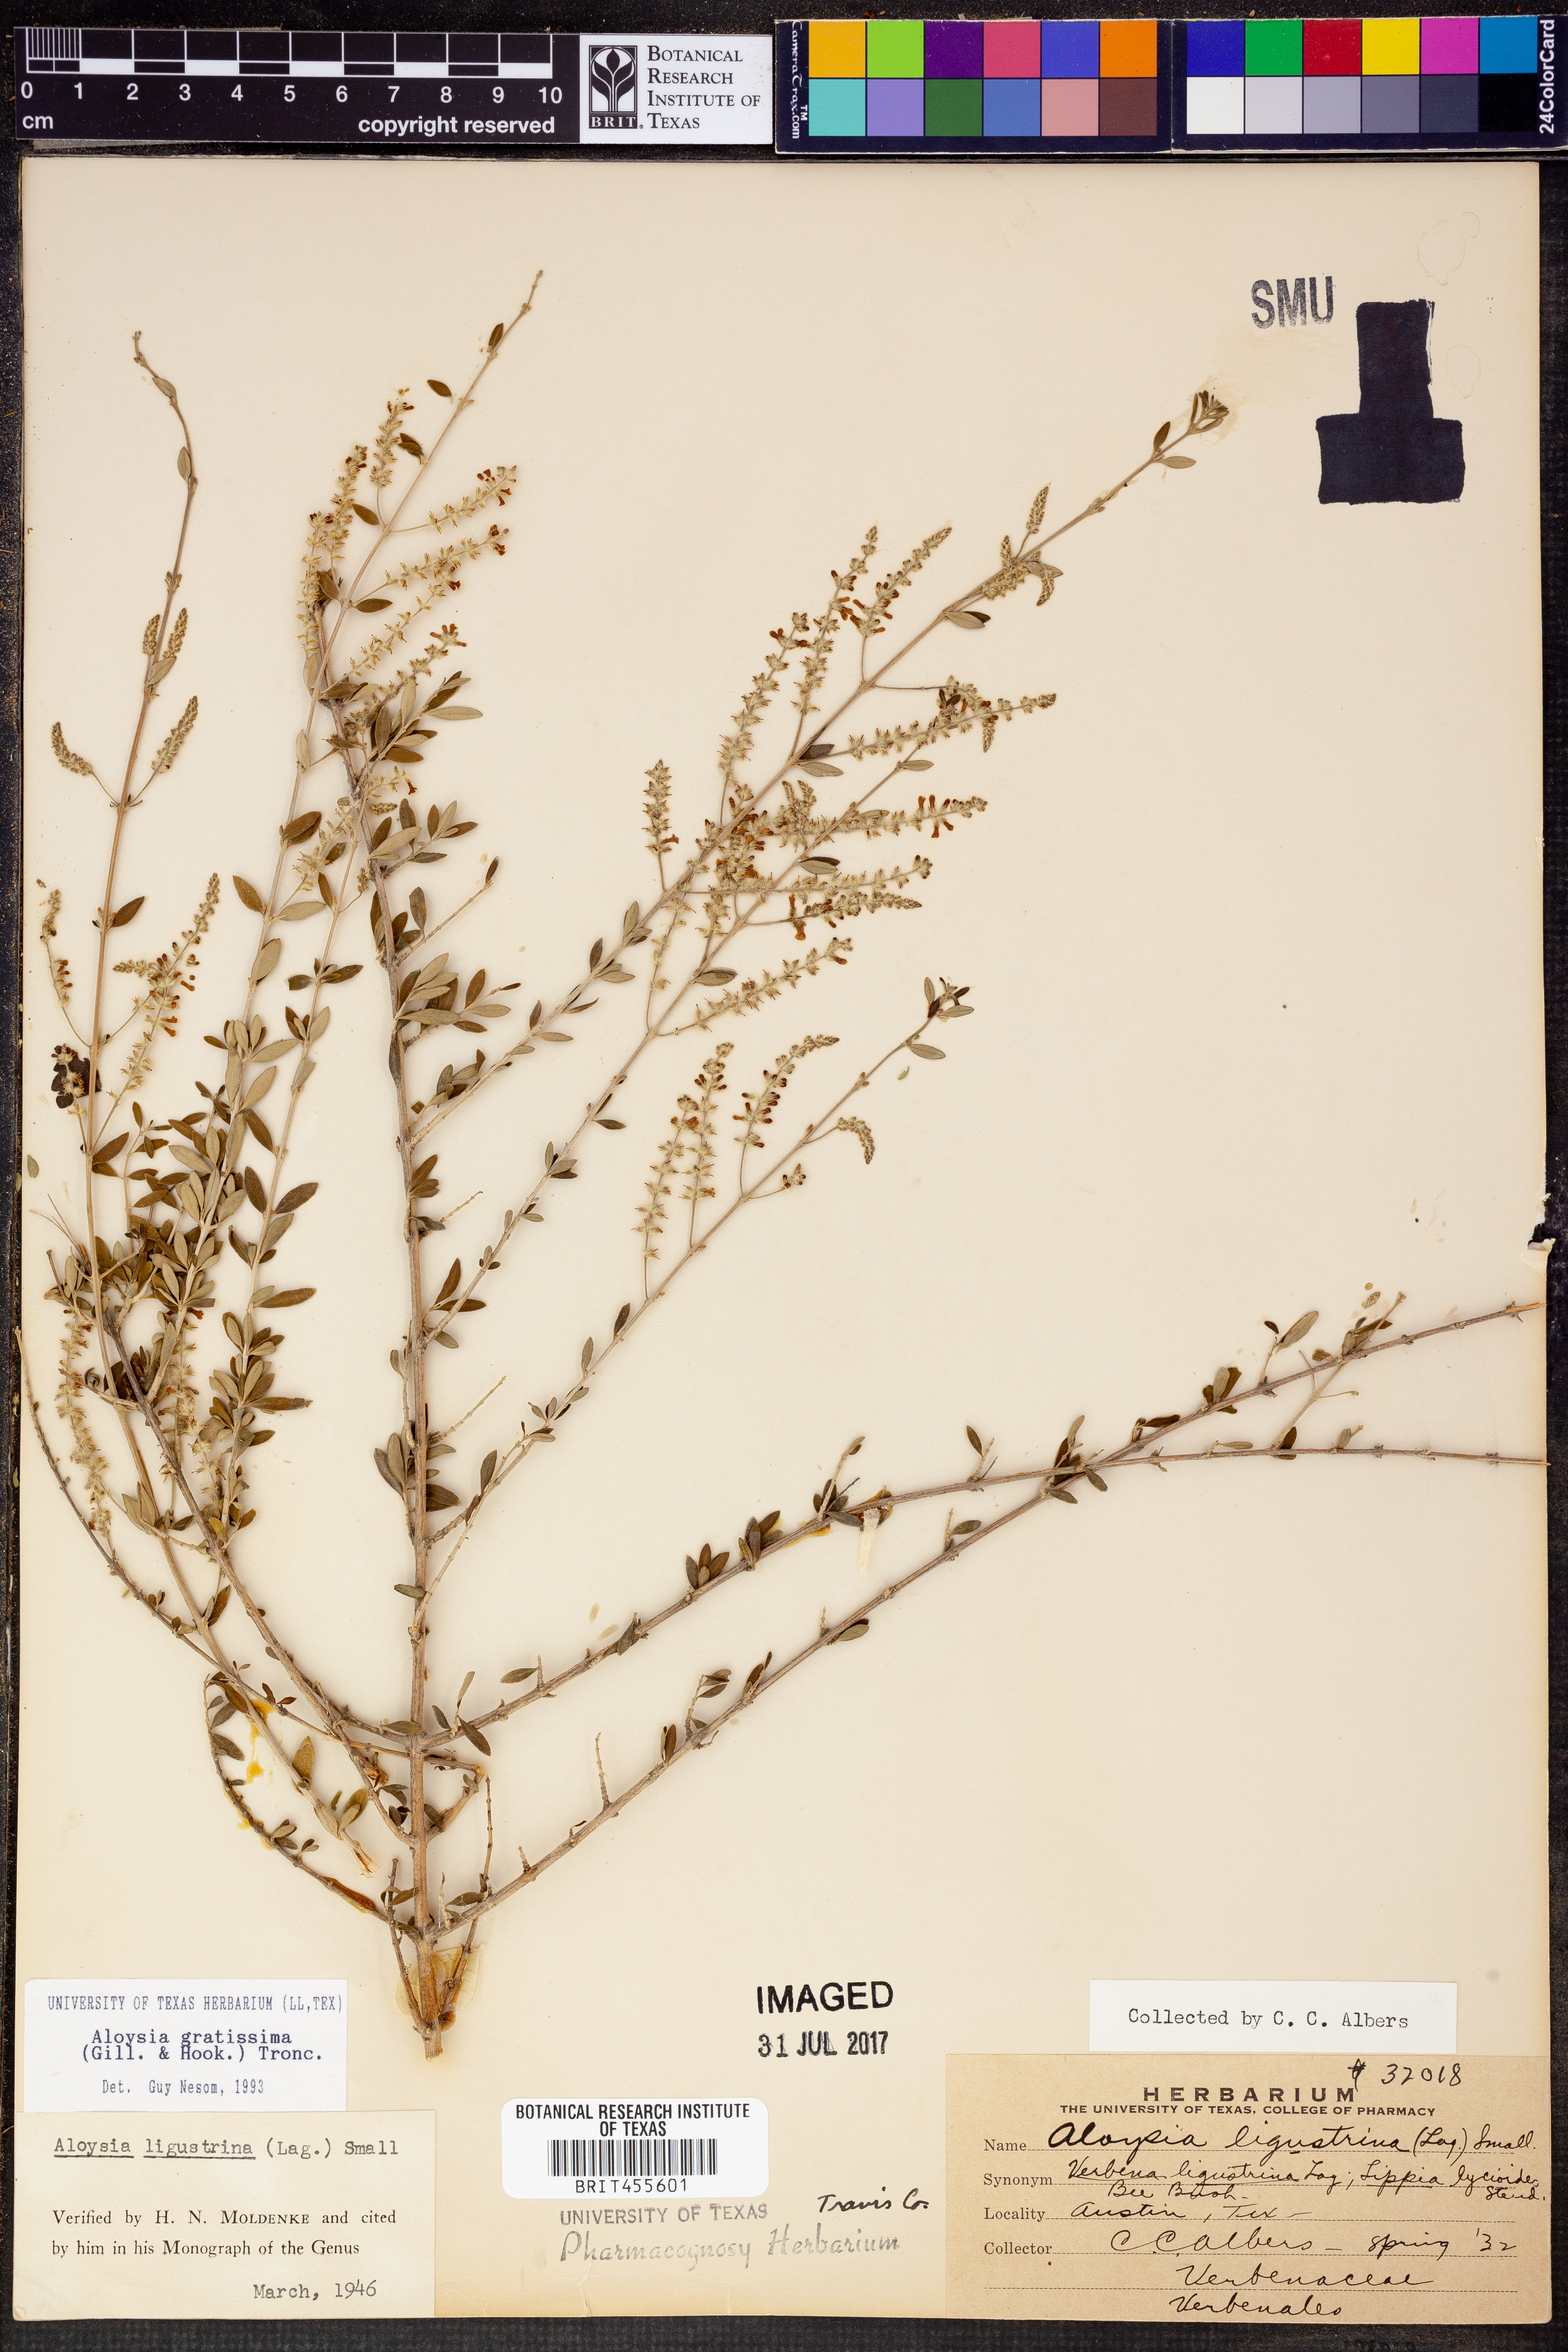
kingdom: Plantae
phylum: Tracheophyta
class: Magnoliopsida
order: Lamiales
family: Verbenaceae
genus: Aloysia
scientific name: Aloysia gratissima
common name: Common bee-brush
